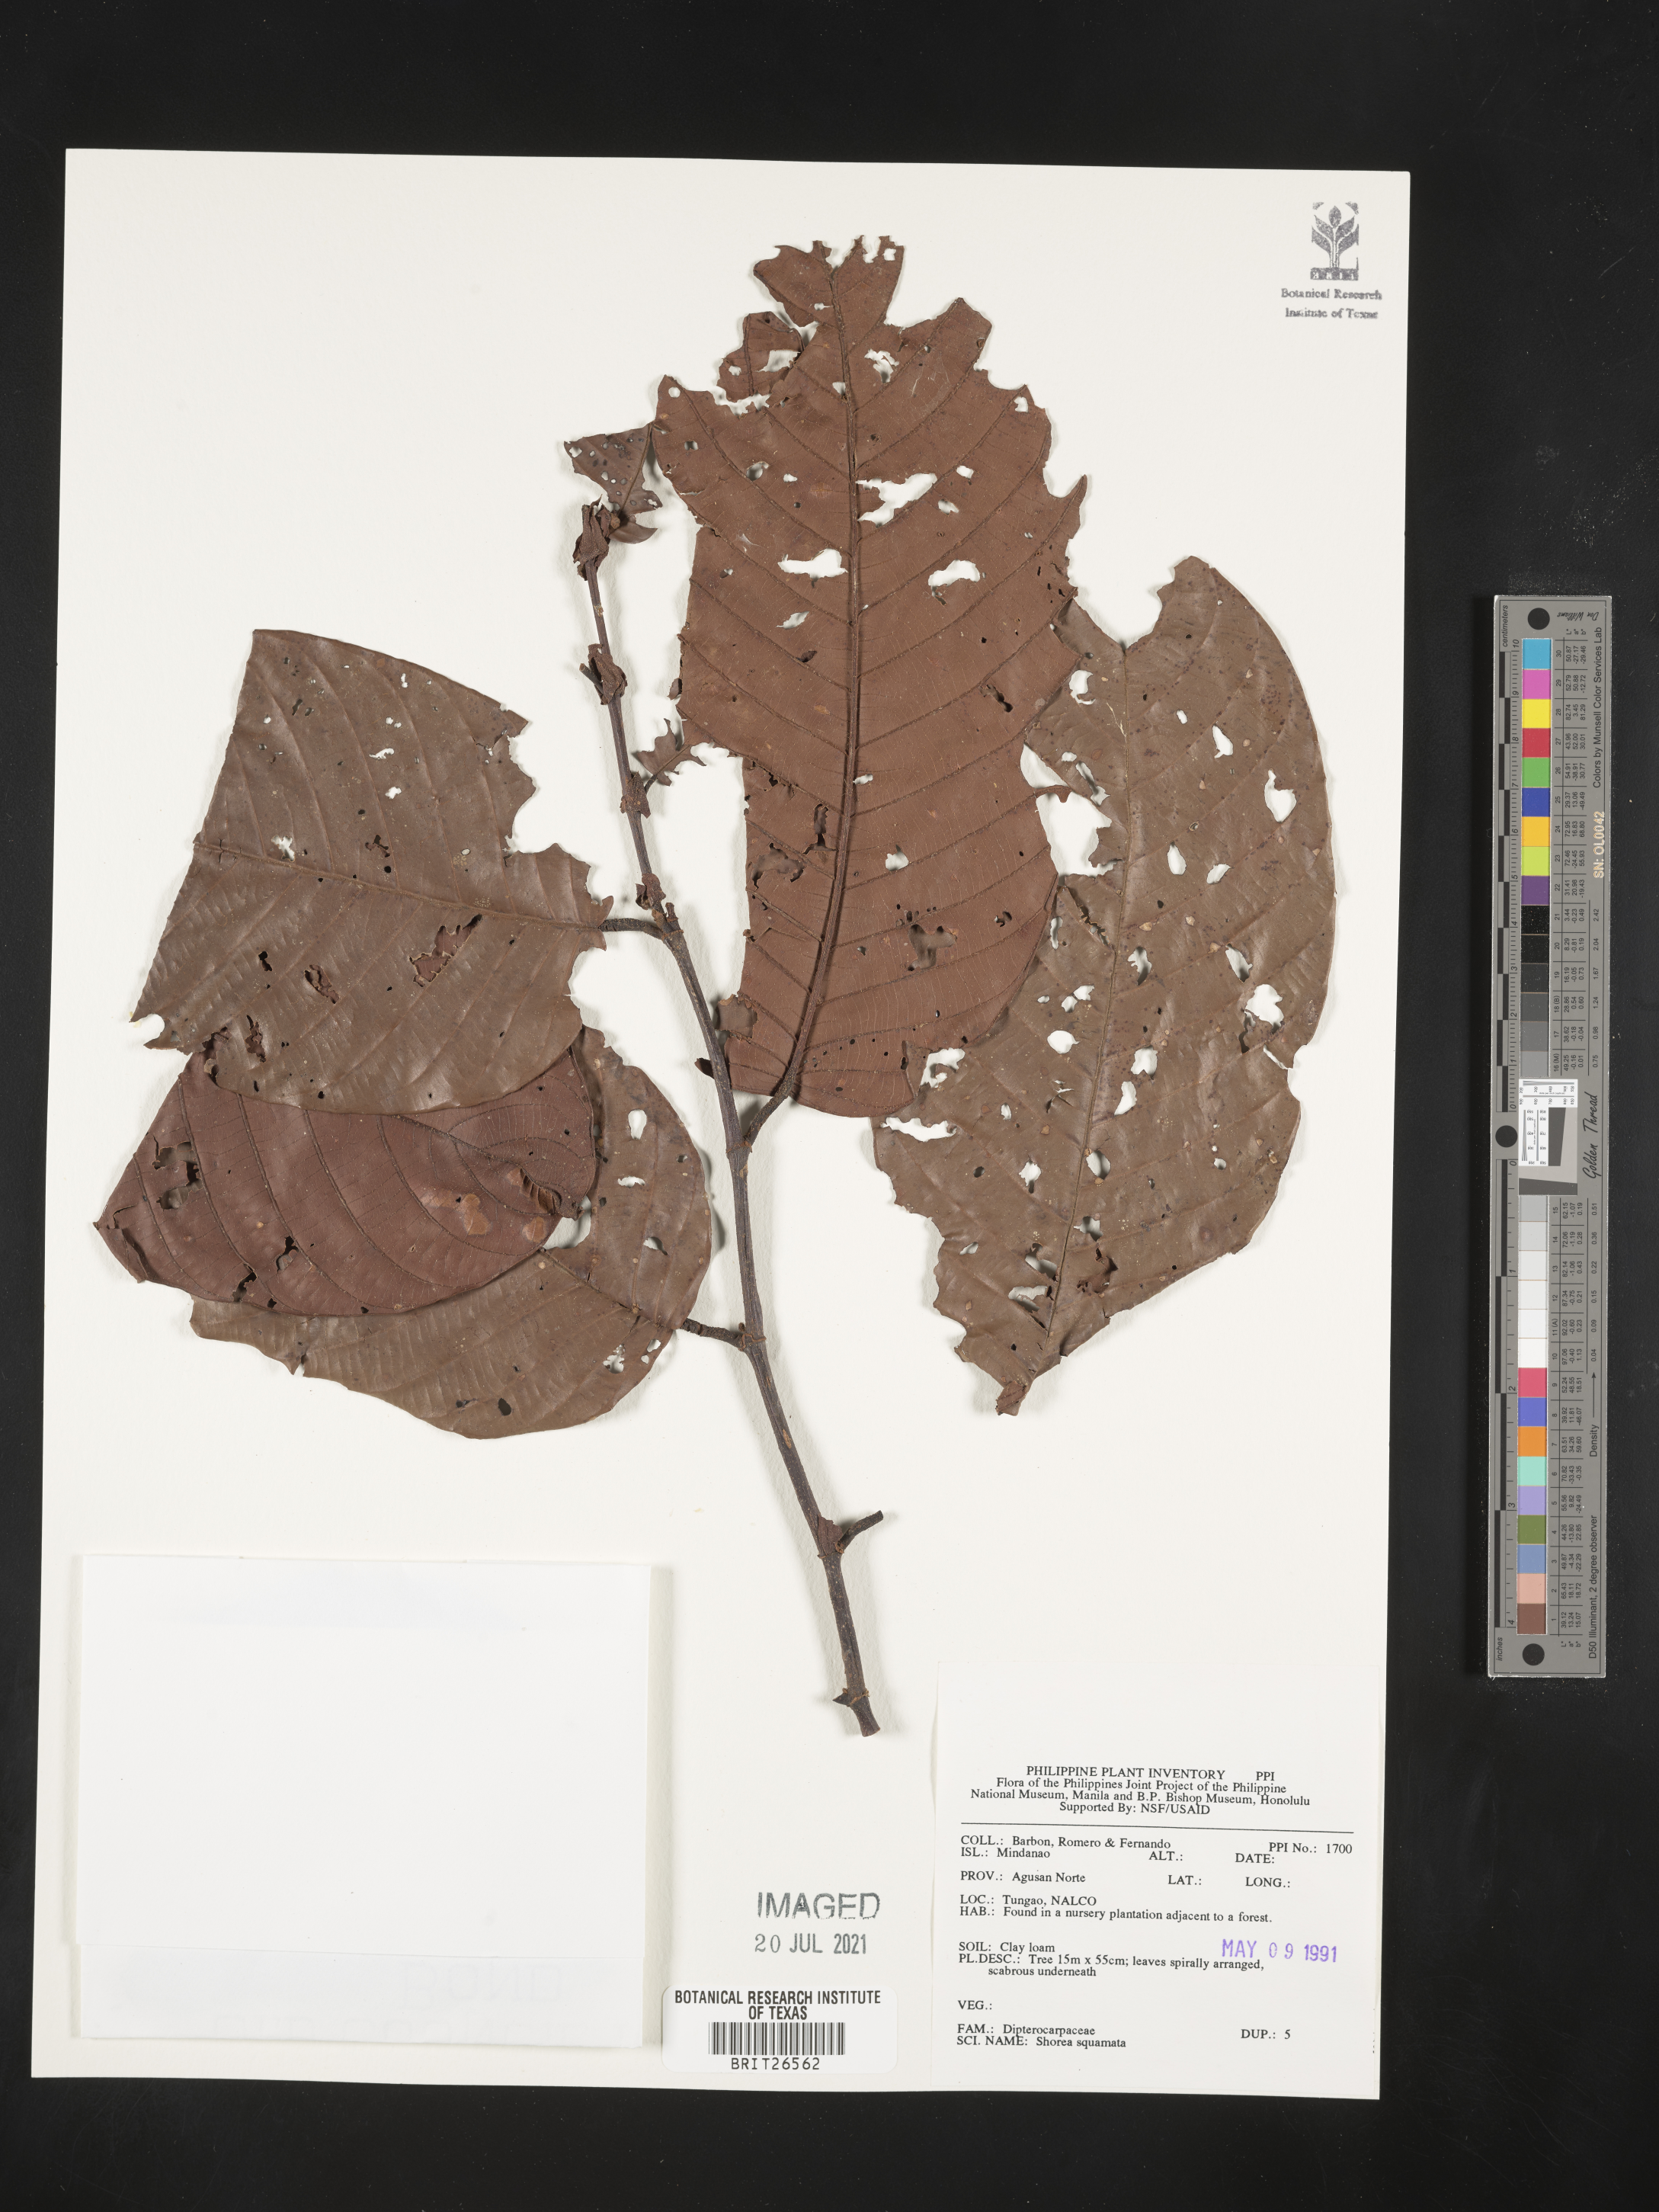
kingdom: Plantae
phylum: Tracheophyta
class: Magnoliopsida
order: Malvales
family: Dipterocarpaceae
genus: Shorea
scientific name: Shorea
